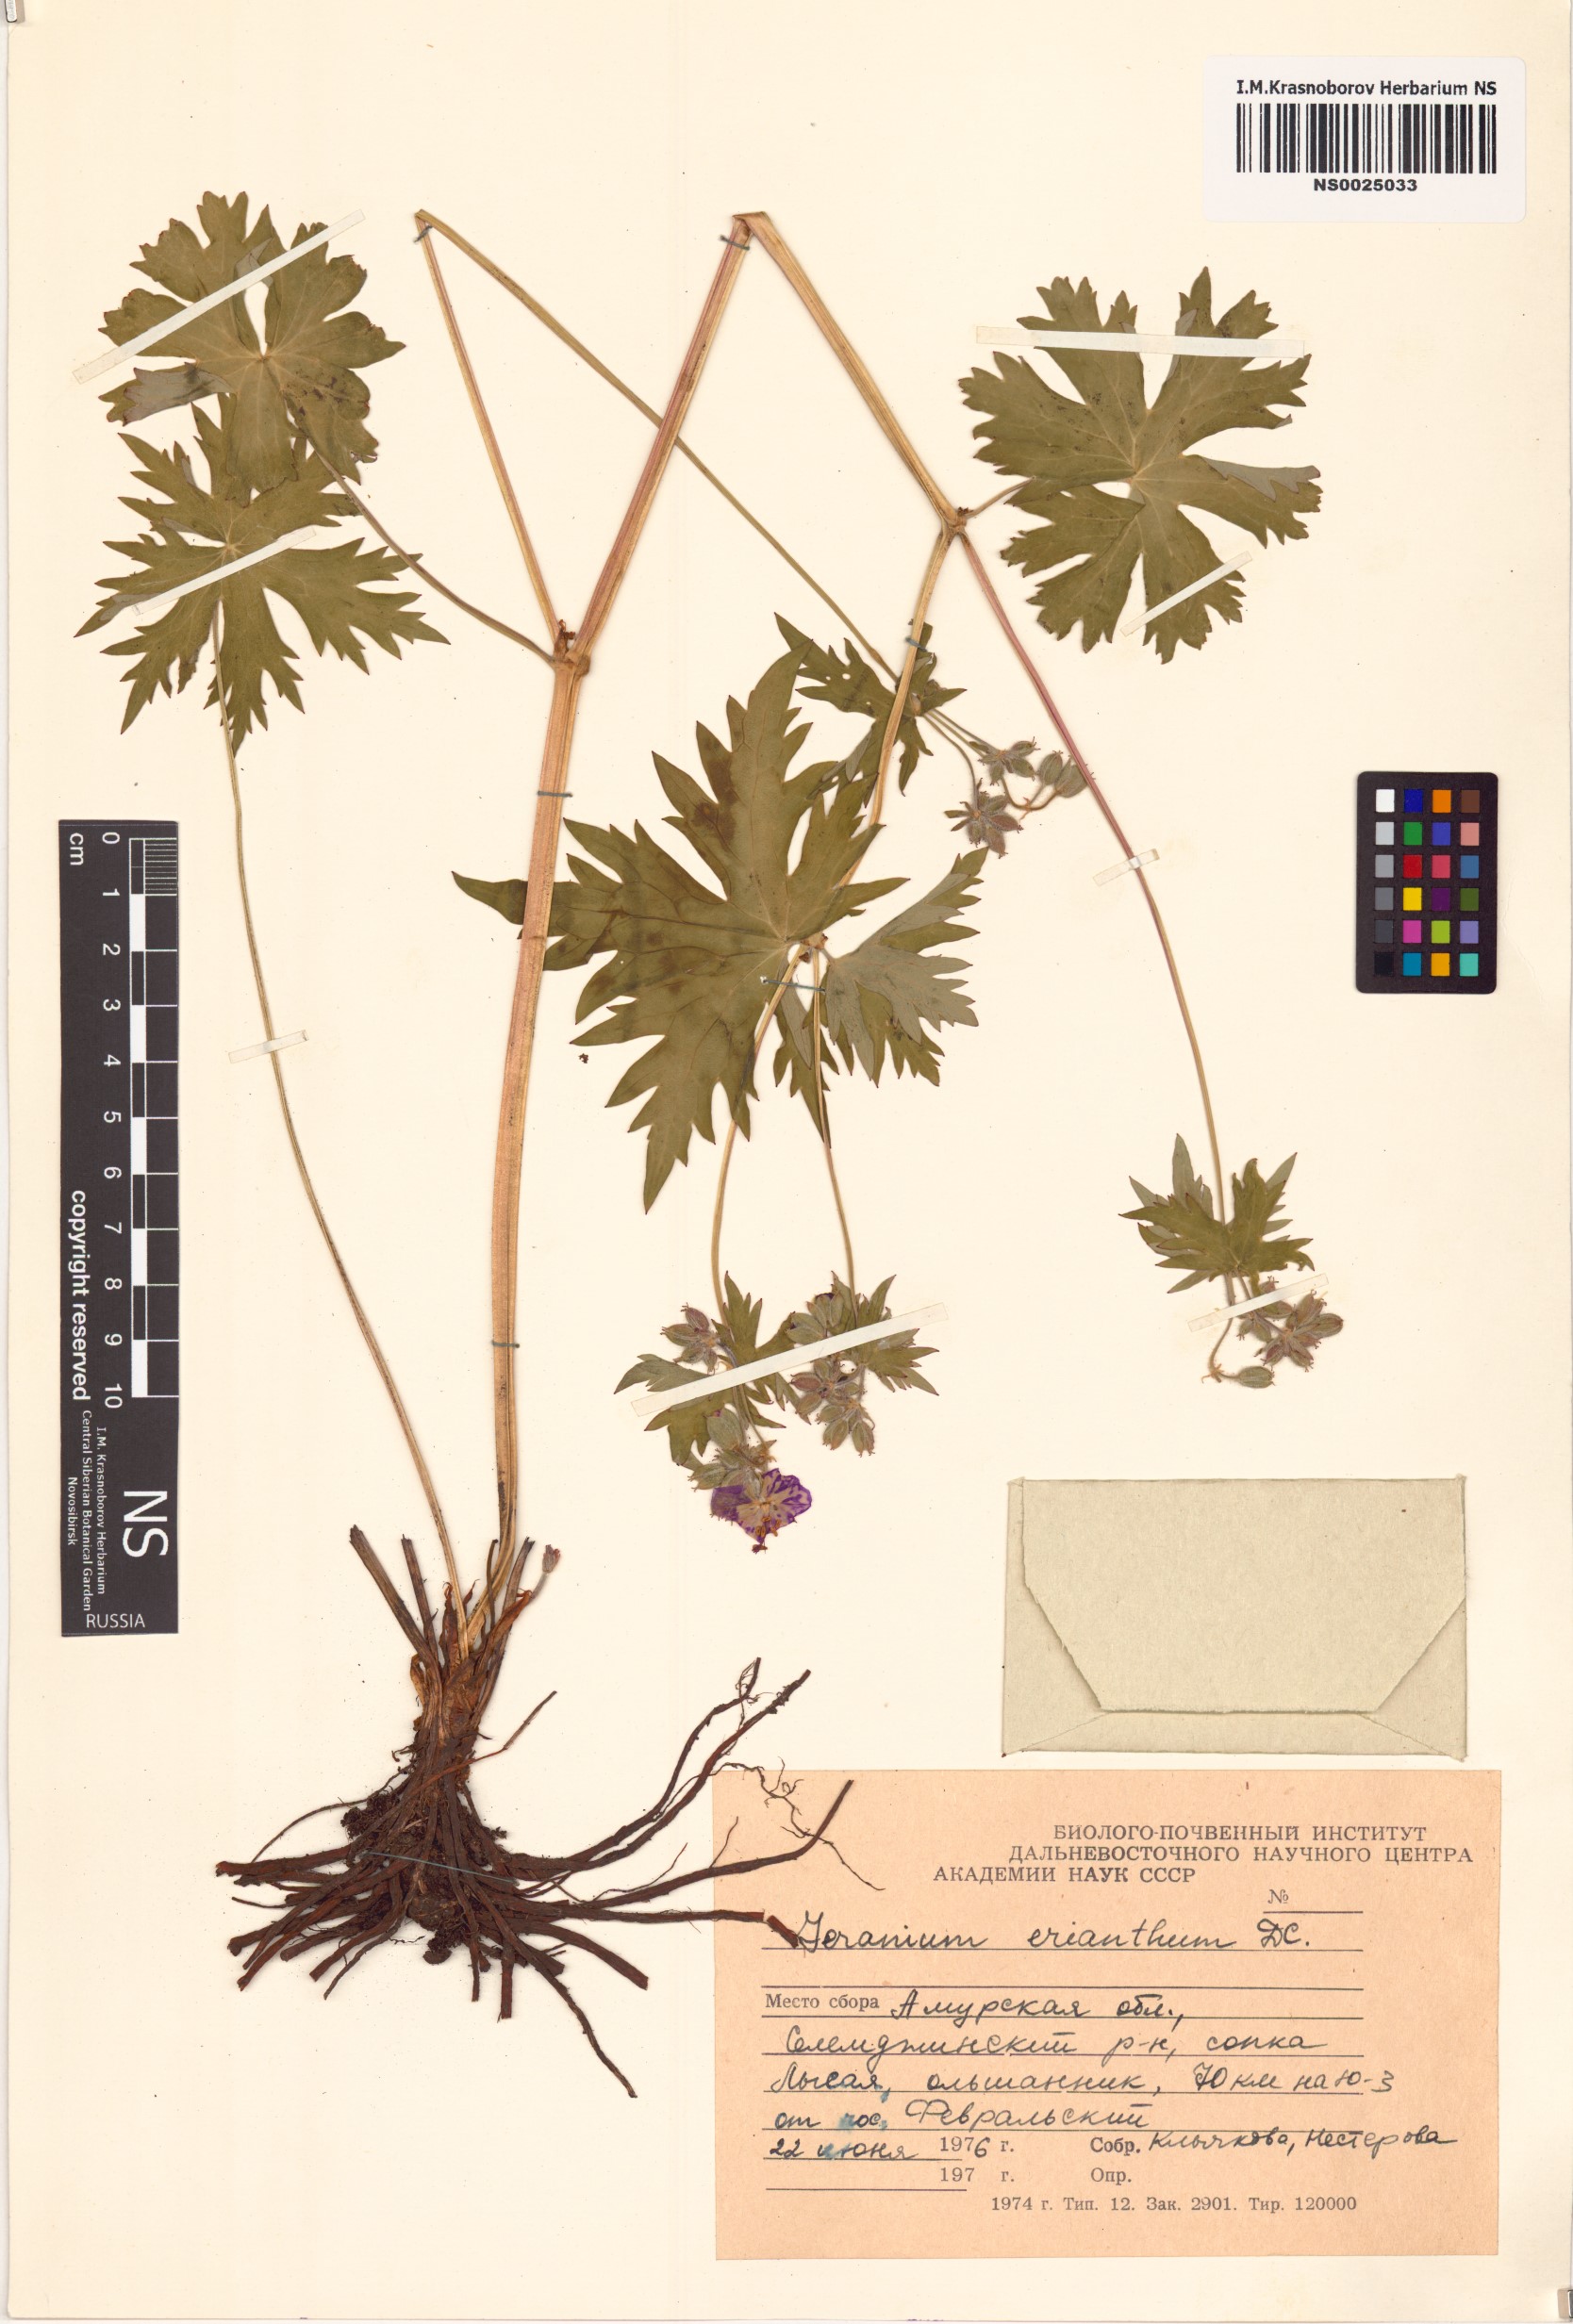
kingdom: Plantae
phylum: Tracheophyta
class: Magnoliopsida
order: Geraniales
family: Geraniaceae
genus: Geranium
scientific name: Geranium erianthum
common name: Northern crane's-bill
